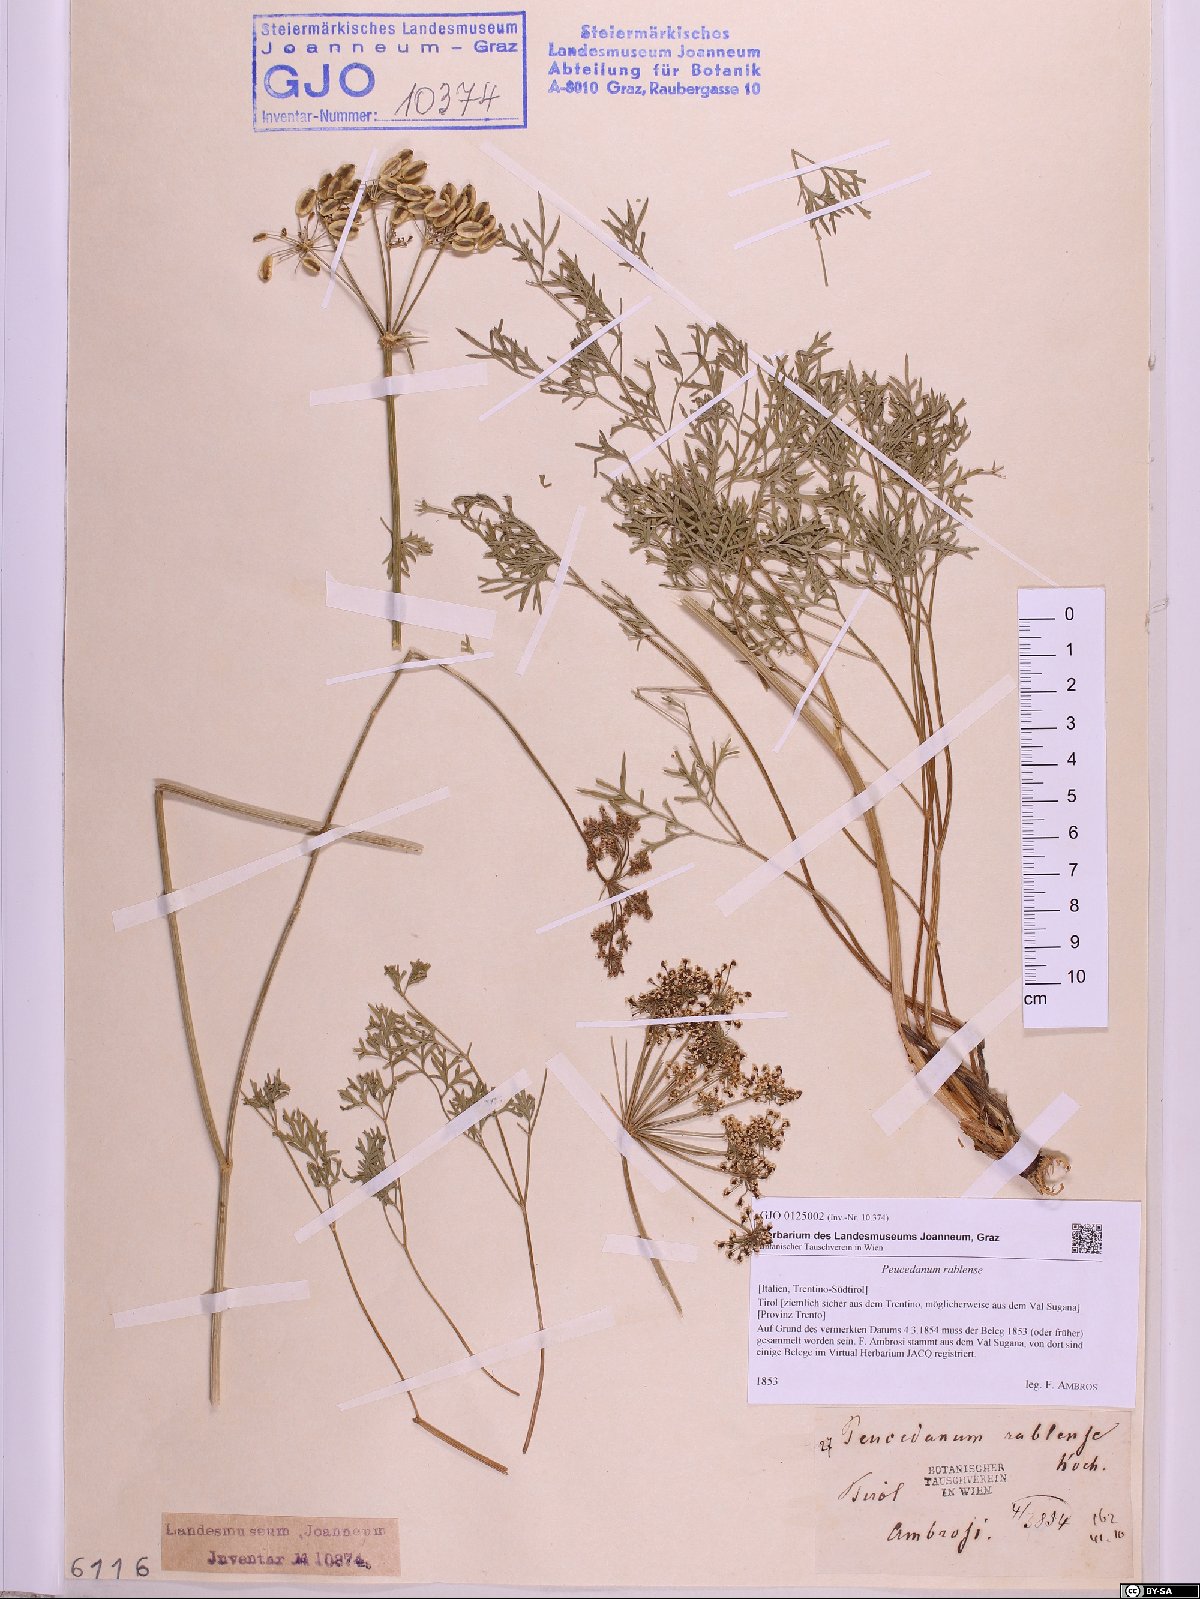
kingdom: Plantae
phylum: Tracheophyta
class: Magnoliopsida
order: Apiales
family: Apiaceae
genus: Peucedanum
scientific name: Peucedanum rablense
